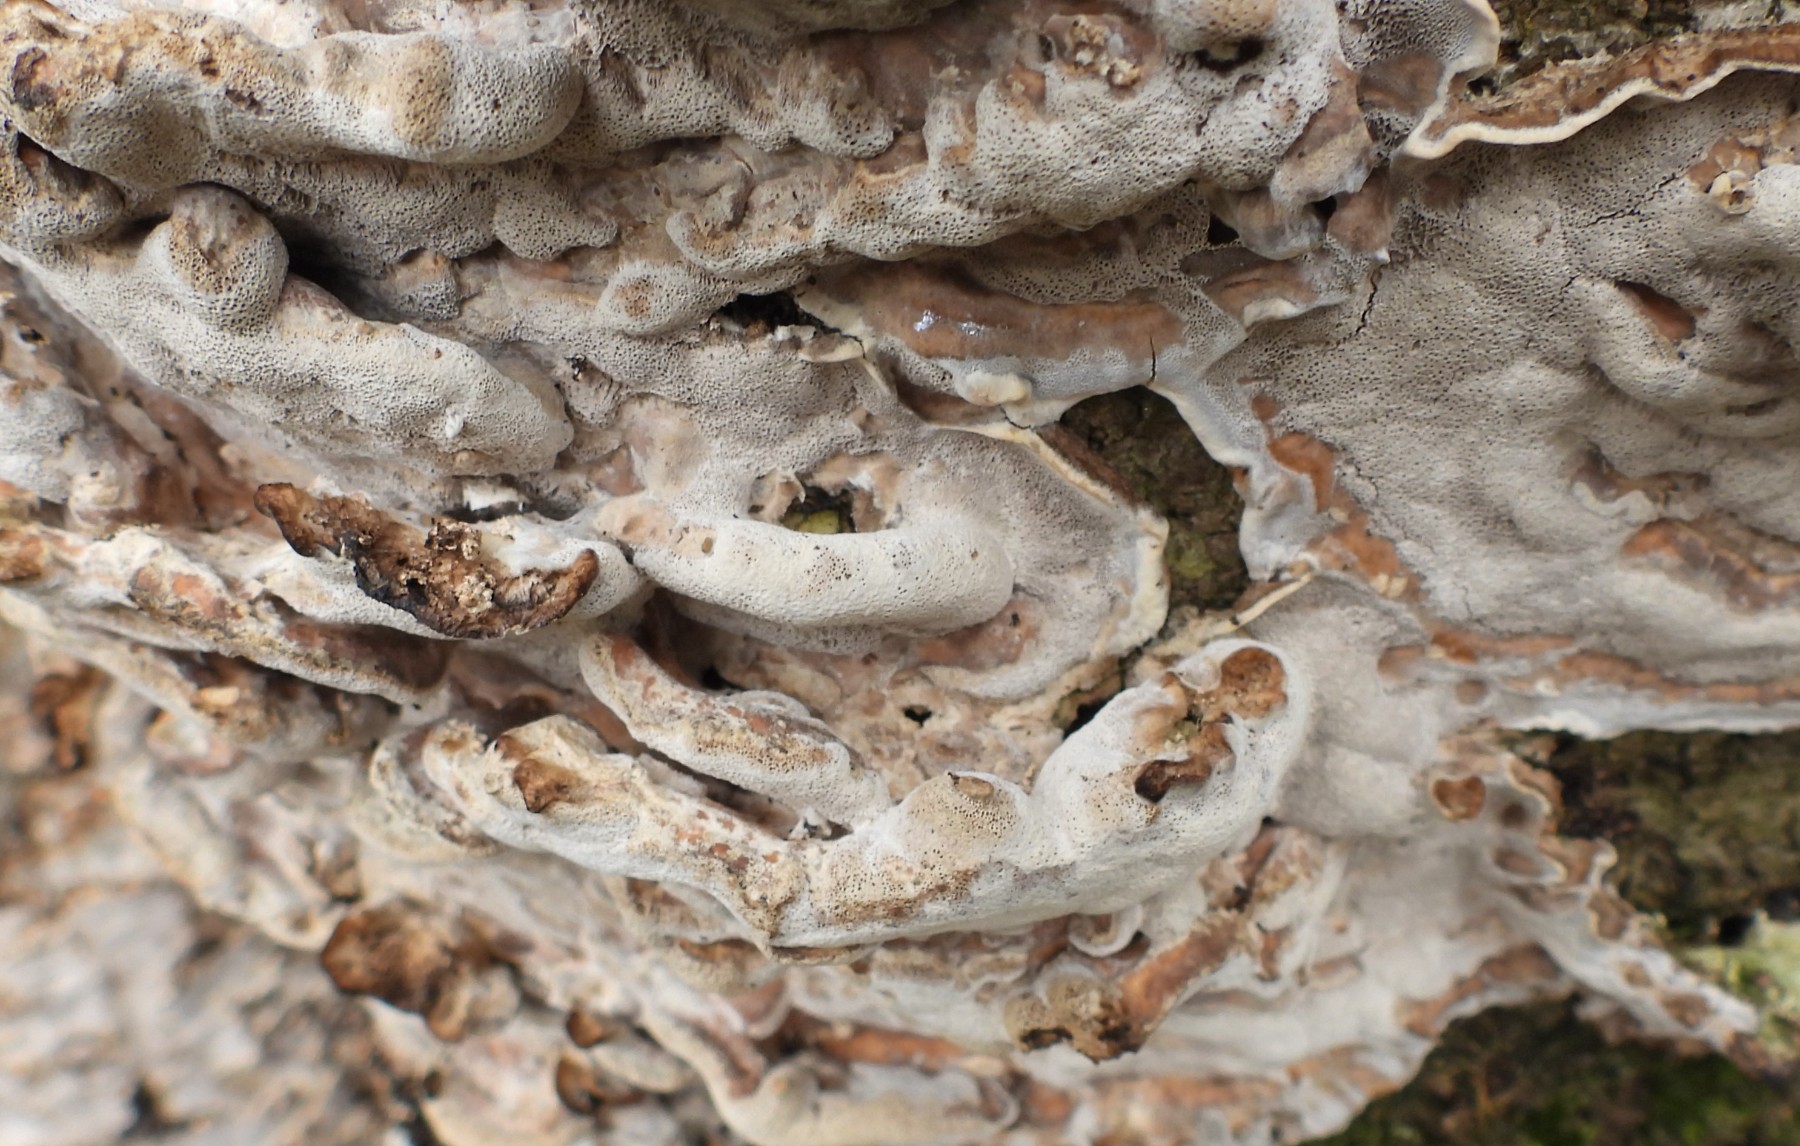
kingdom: Fungi
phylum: Basidiomycota
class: Agaricomycetes
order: Polyporales
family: Phanerochaetaceae
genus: Bjerkandera
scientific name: Bjerkandera adusta
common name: sveden sodporesvamp
